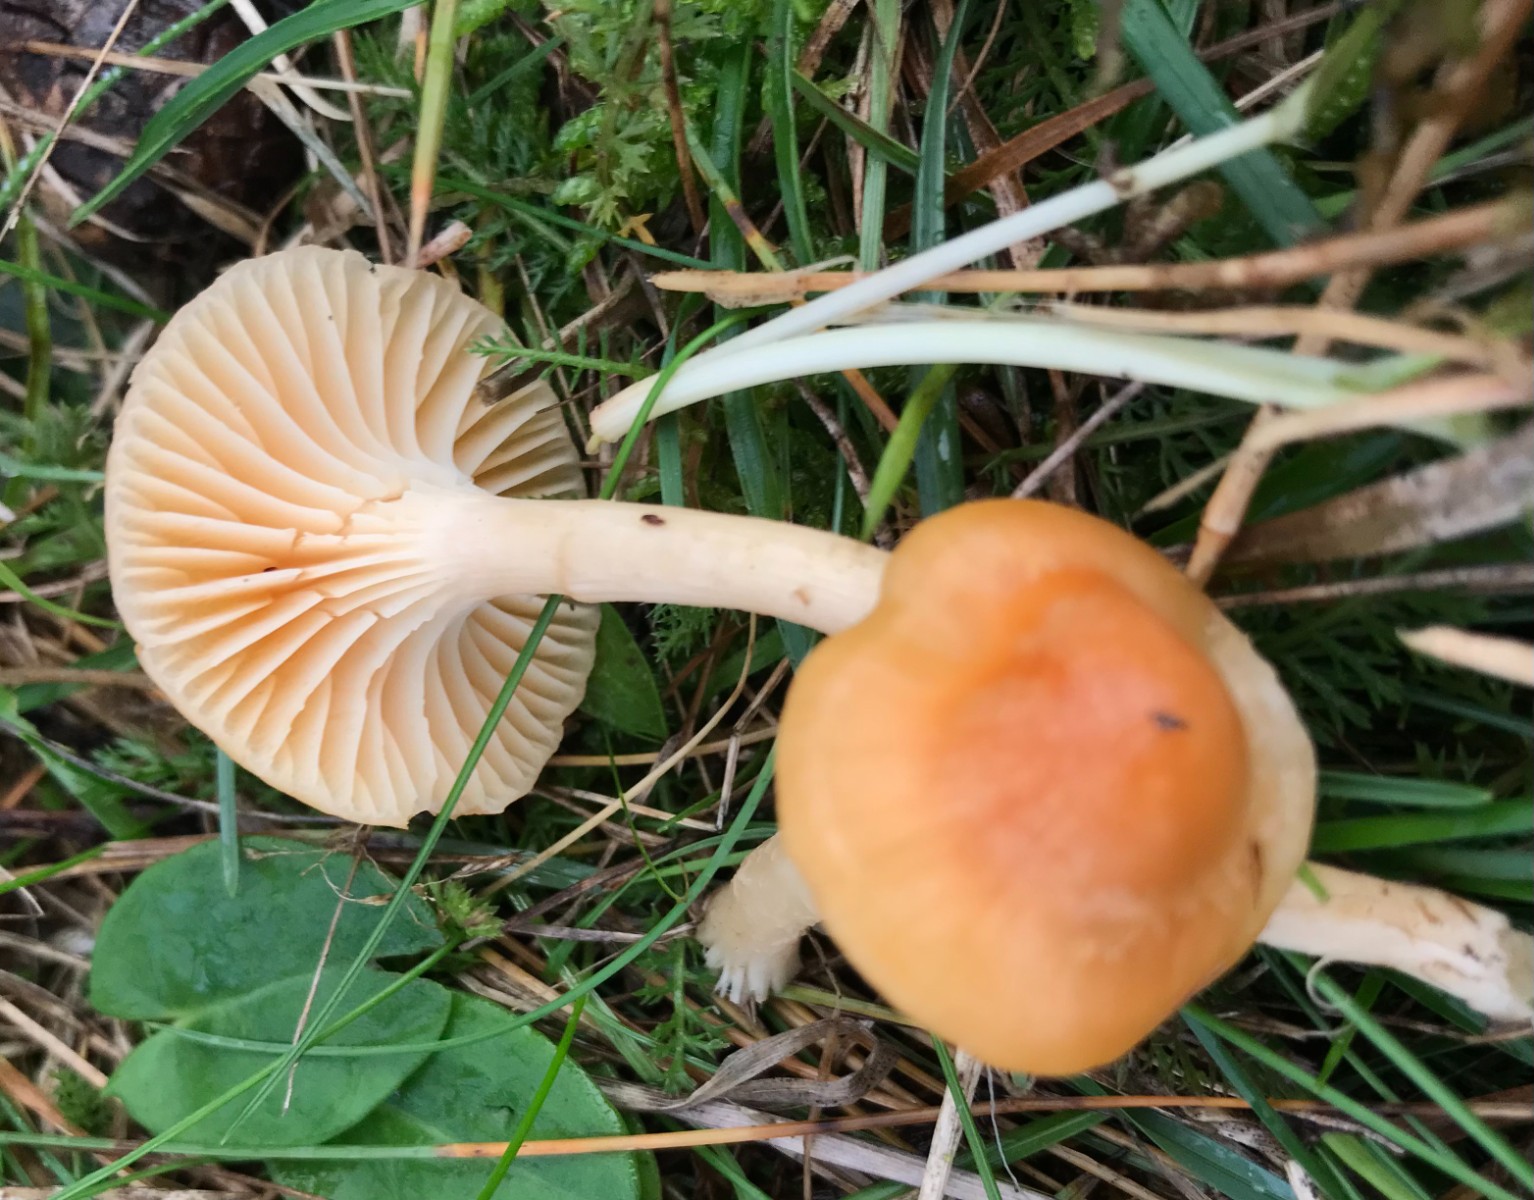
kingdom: Fungi
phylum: Basidiomycota
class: Agaricomycetes
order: Agaricales
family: Hygrophoraceae
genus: Cuphophyllus
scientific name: Cuphophyllus pratensis
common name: eng-vokshat
